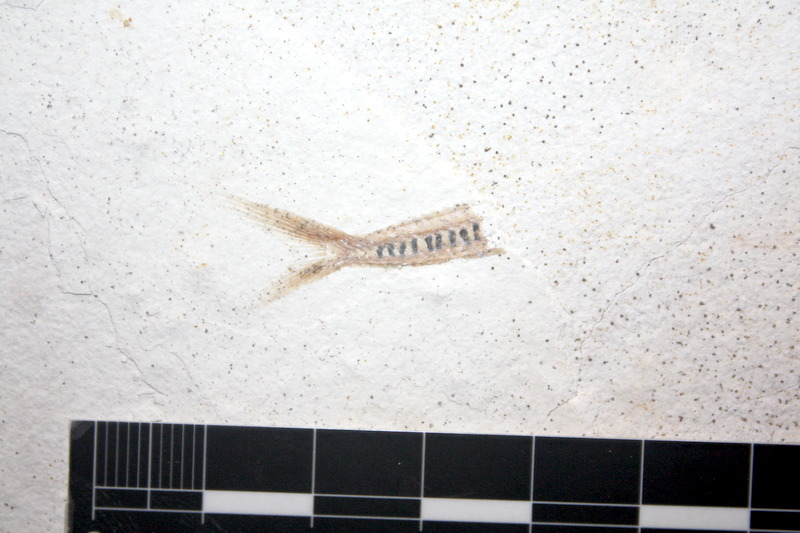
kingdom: Animalia
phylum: Chordata
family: Aspidorhynchidae
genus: Belonostomus
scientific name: Belonostomus kochii
